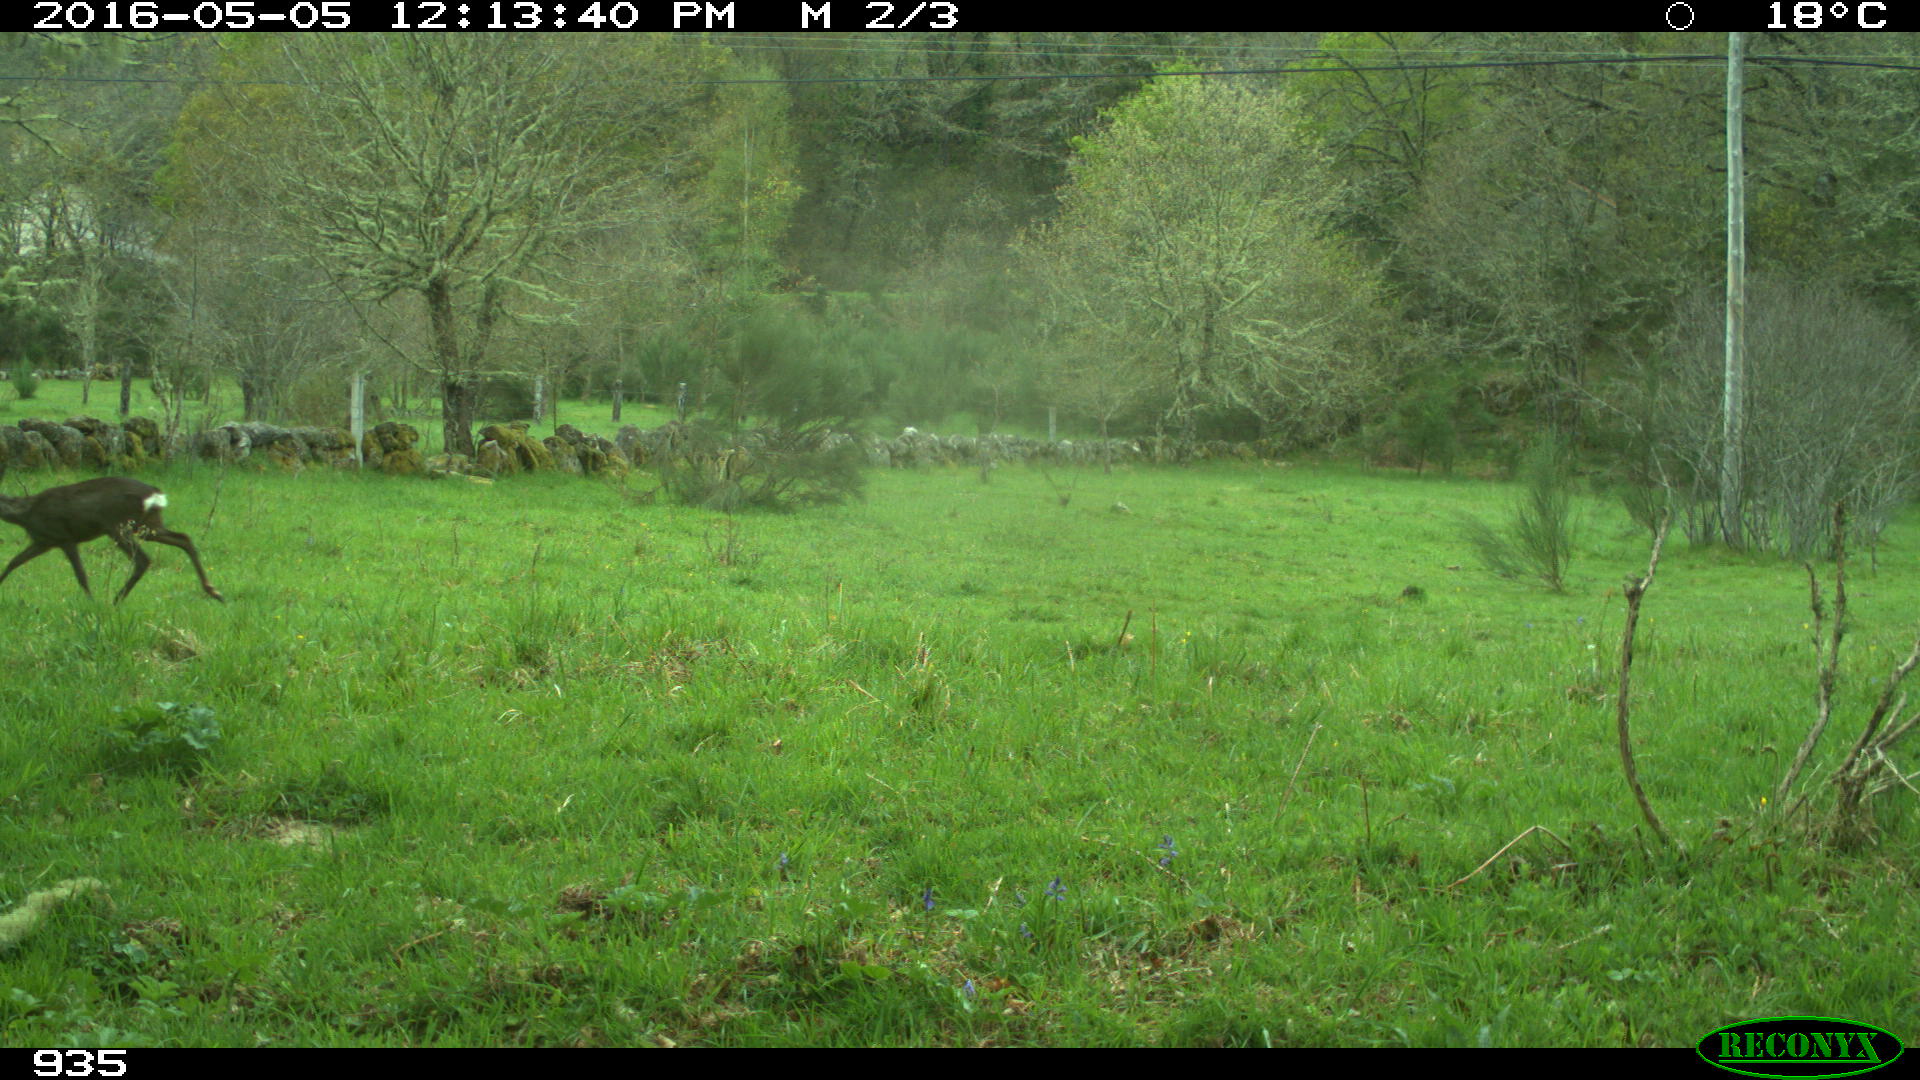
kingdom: Animalia
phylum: Chordata
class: Mammalia
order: Artiodactyla
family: Cervidae
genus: Capreolus
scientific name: Capreolus capreolus
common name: Western roe deer
